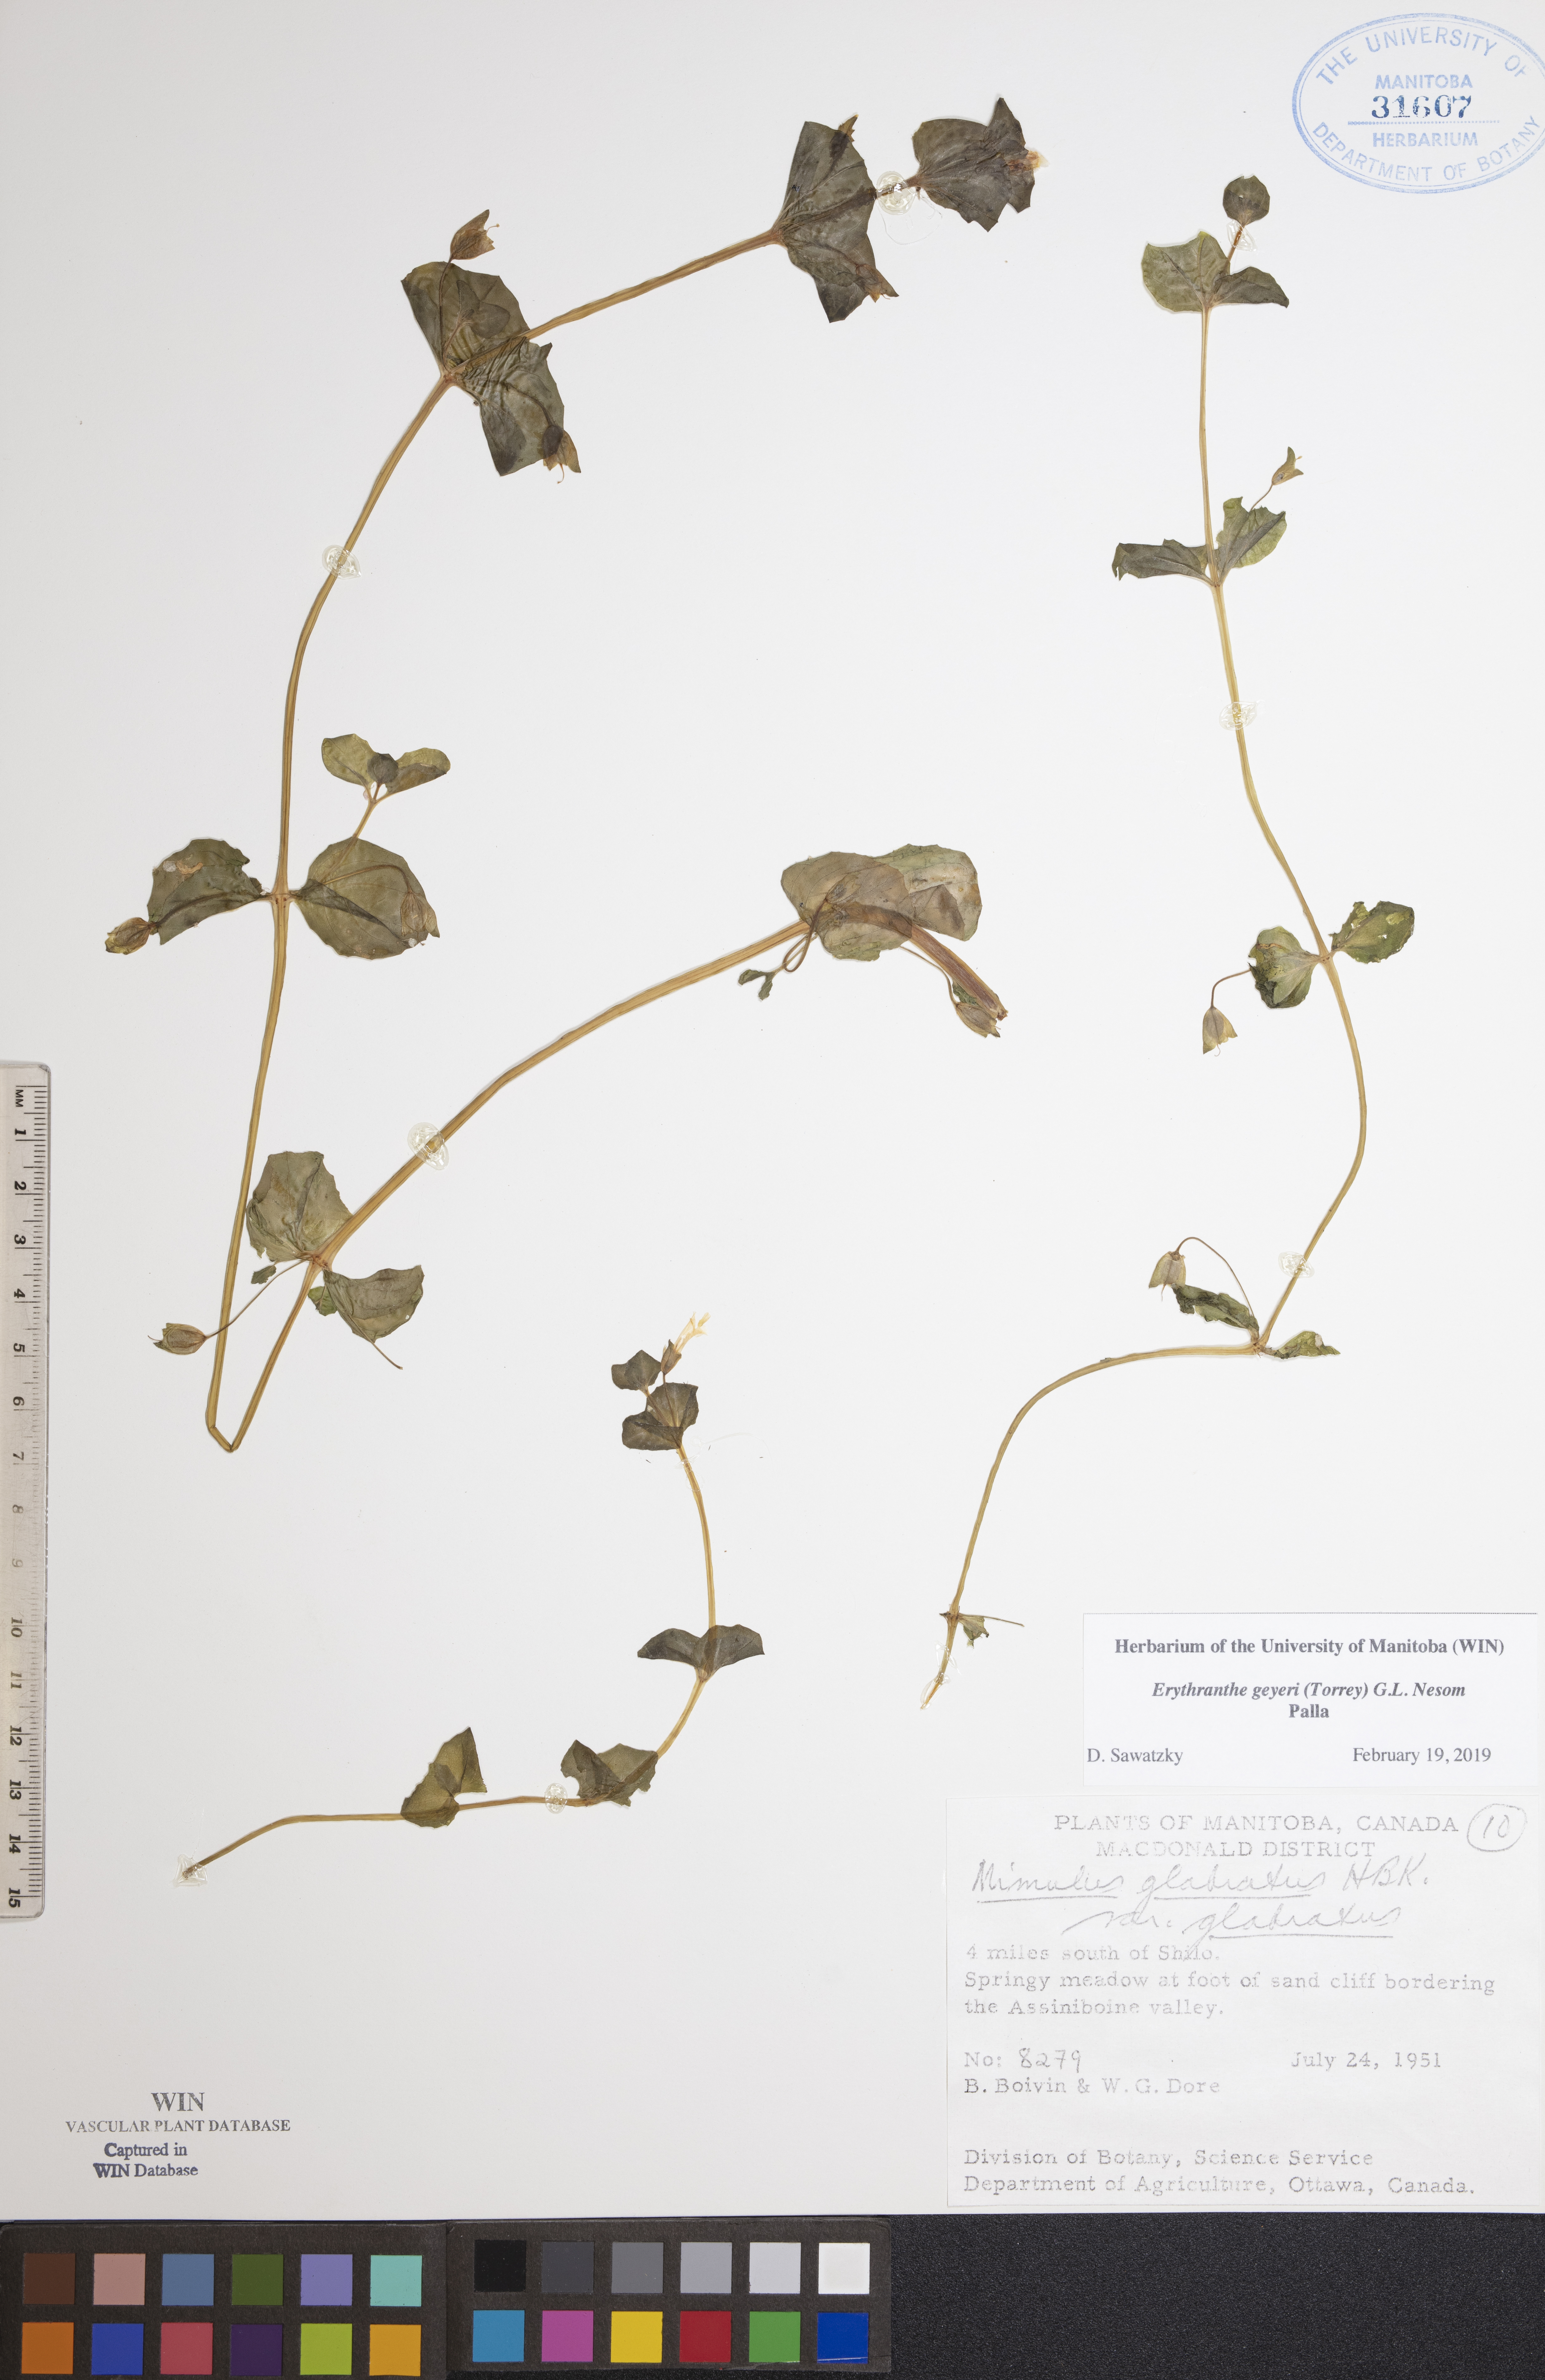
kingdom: Plantae
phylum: Tracheophyta
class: Magnoliopsida
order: Lamiales
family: Phrymaceae
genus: Erythranthe
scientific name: Erythranthe geyeri
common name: Geyer's monkeyflower
